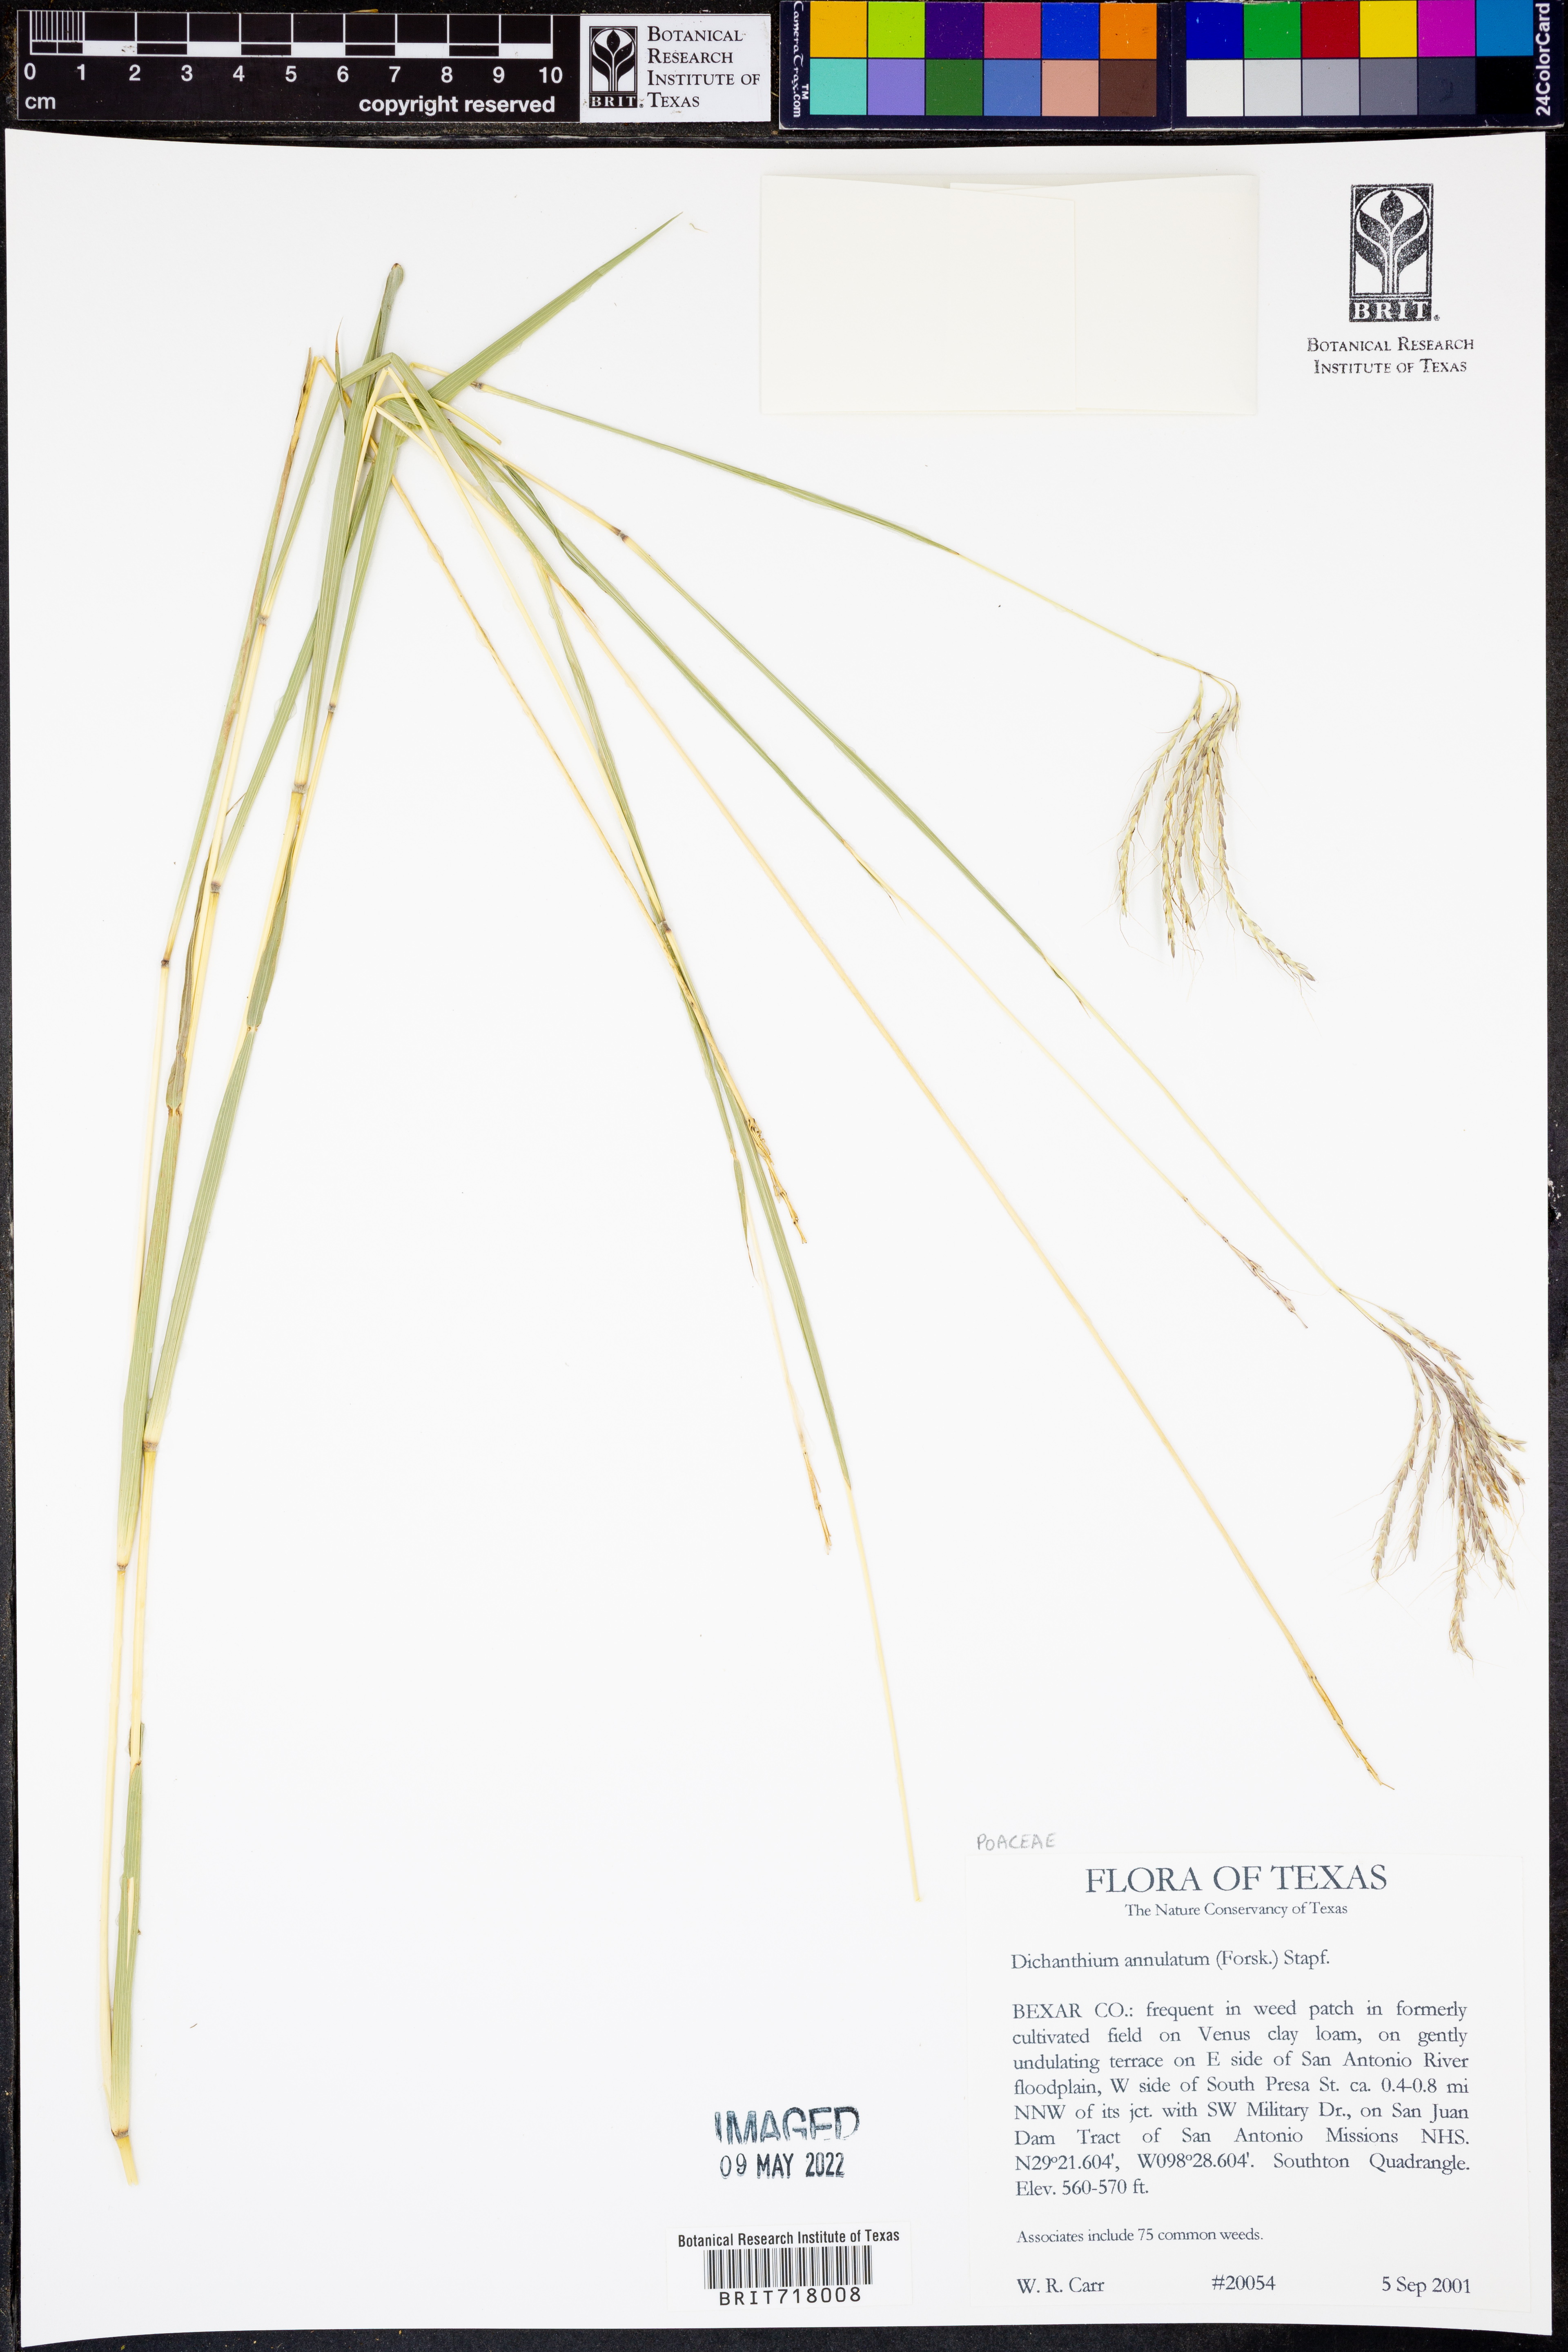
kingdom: Plantae
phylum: Tracheophyta
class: Liliopsida
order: Poales
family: Poaceae
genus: Dichanthium
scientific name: Dichanthium annulatum
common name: Kleberg's bluestem
